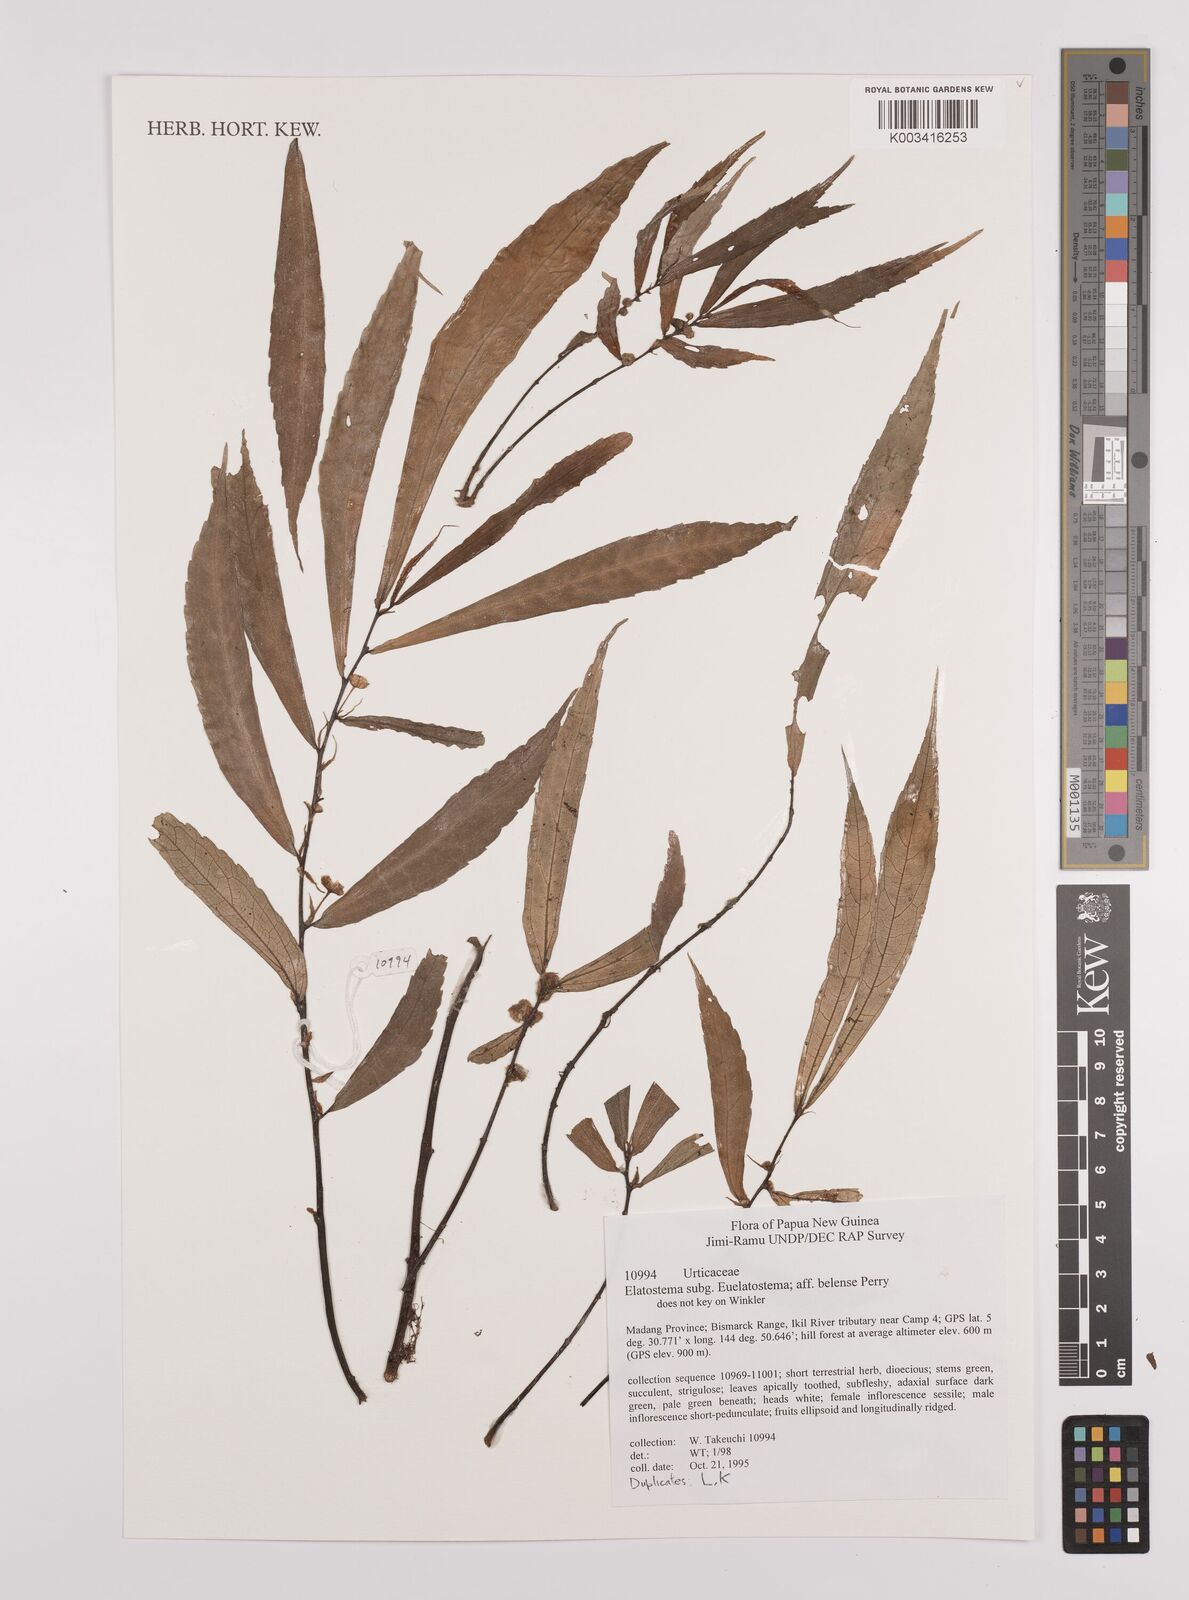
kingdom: Plantae
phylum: Tracheophyta
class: Magnoliopsida
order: Rosales
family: Urticaceae
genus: Elatostema
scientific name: Elatostema belense
